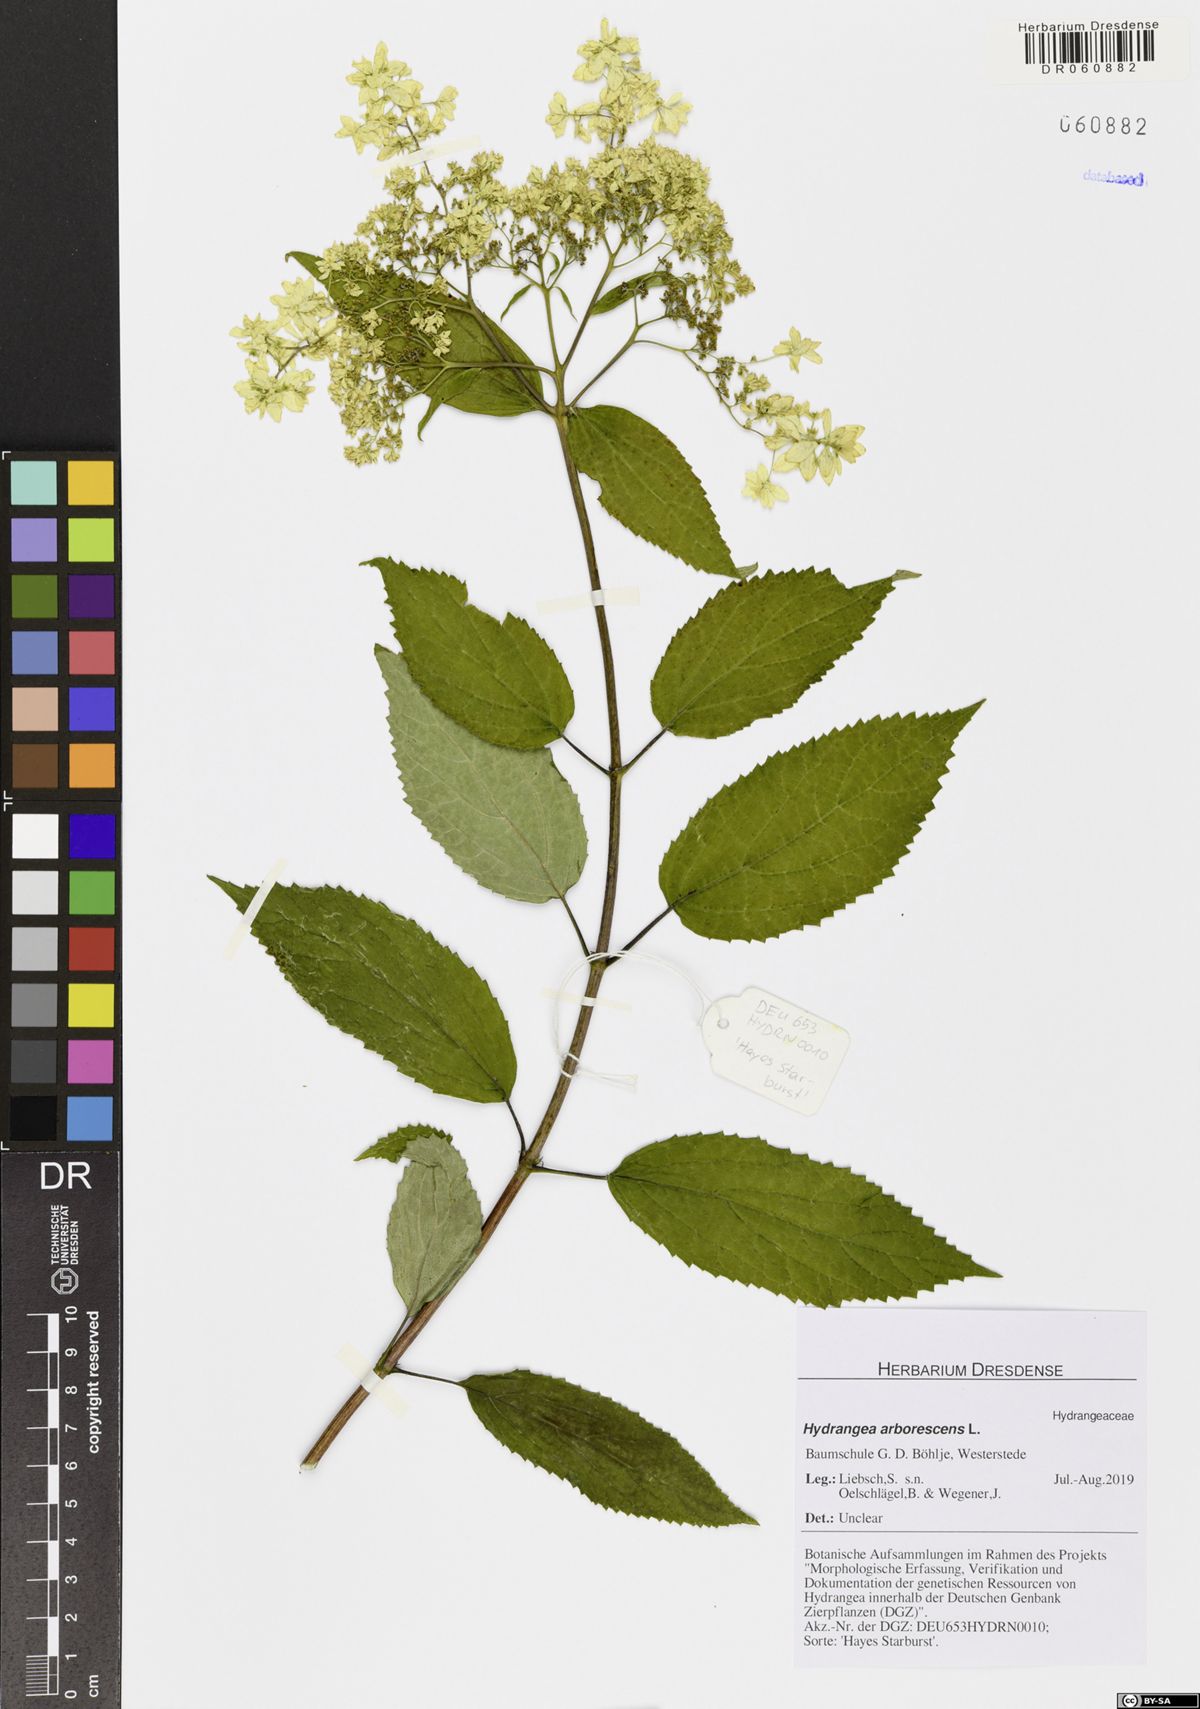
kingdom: Plantae
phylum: Tracheophyta
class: Magnoliopsida
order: Cornales
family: Hydrangeaceae
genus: Hydrangea
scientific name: Hydrangea arborescens
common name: Sevenbark
